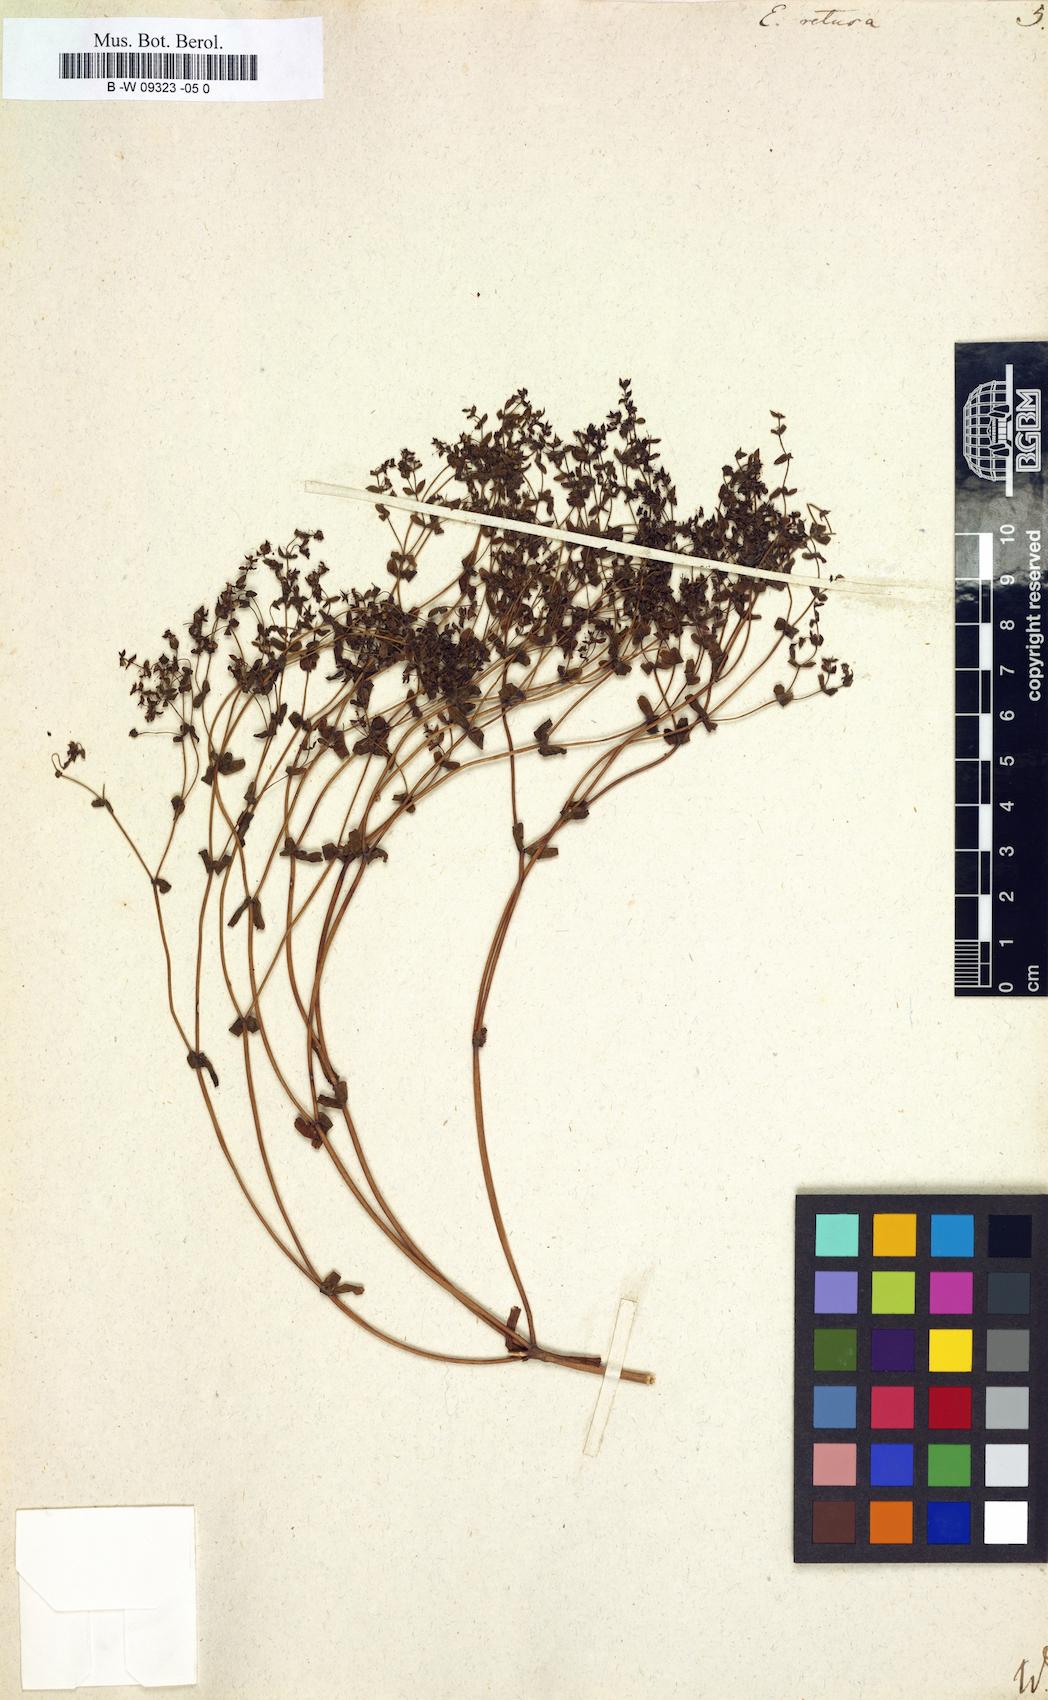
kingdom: Plantae
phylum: Tracheophyta
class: Magnoliopsida
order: Malpighiales
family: Euphorbiaceae
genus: Euphorbia
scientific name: Euphorbia retusa
